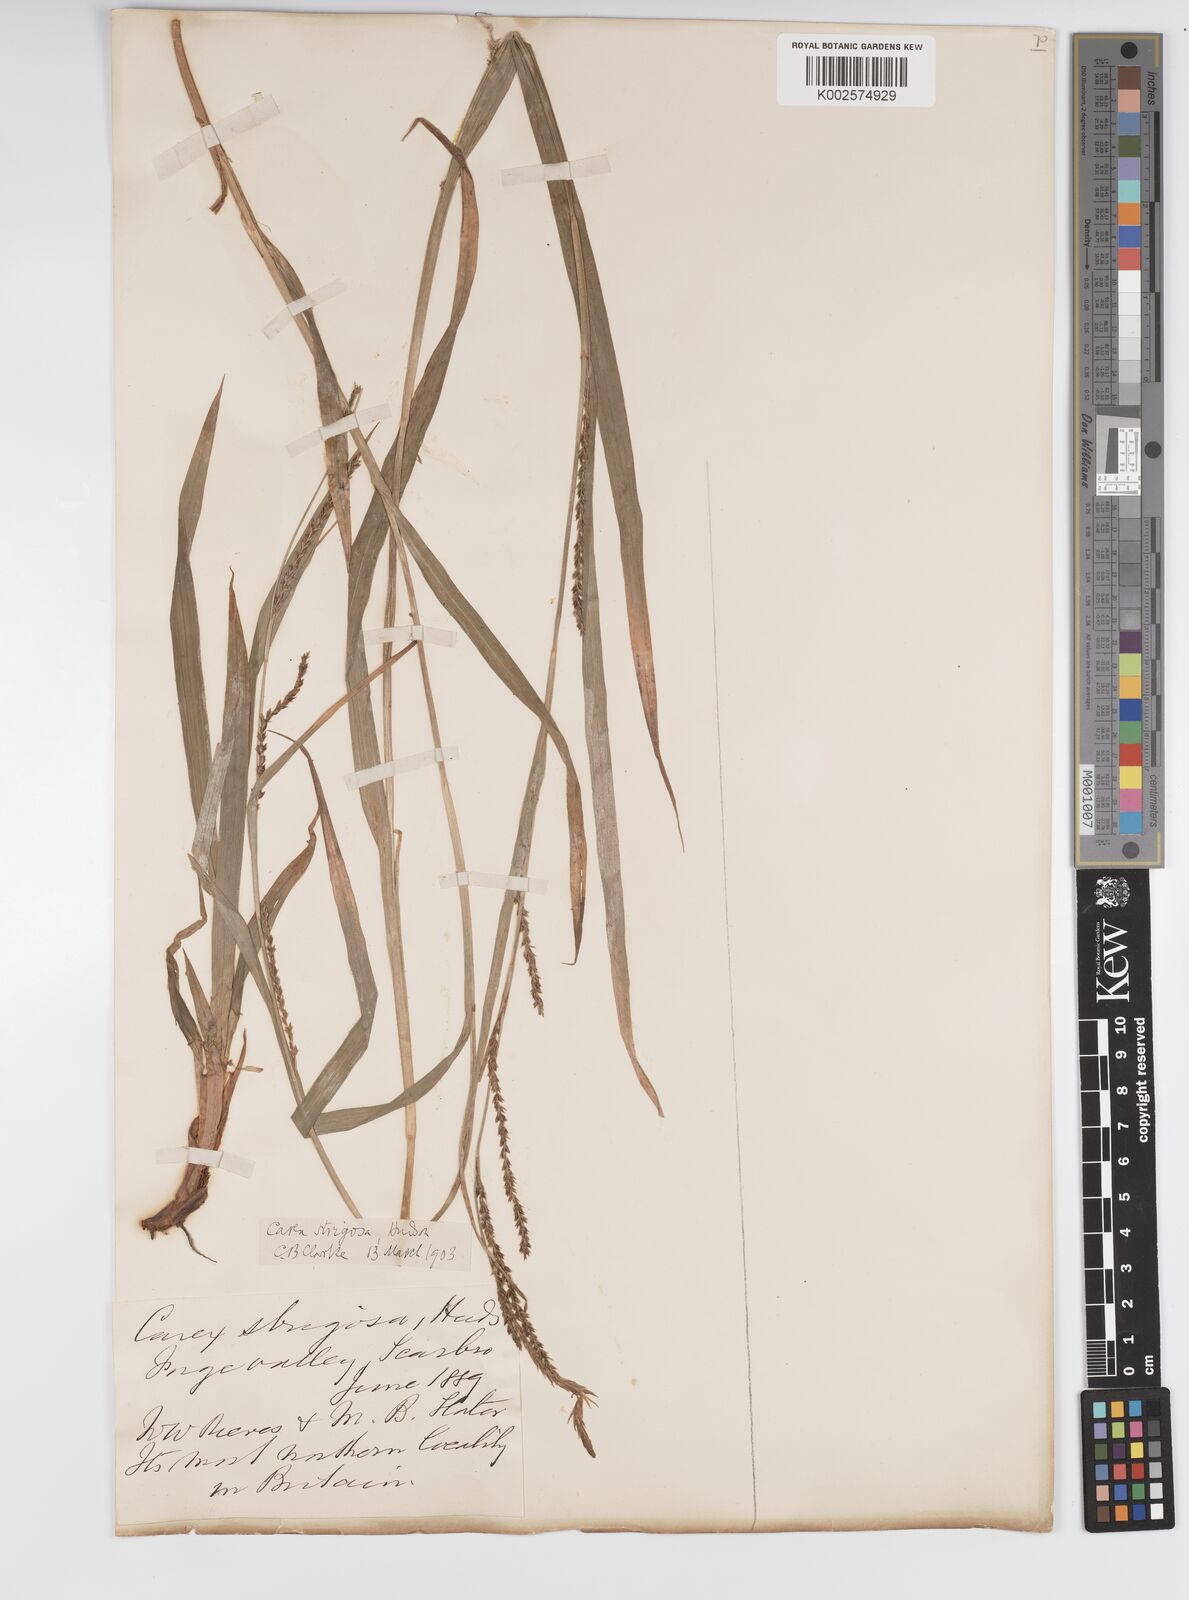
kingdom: Plantae
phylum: Tracheophyta
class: Liliopsida
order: Poales
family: Cyperaceae
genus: Carex
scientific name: Carex strigosa
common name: Thin-spiked wood-sedge
